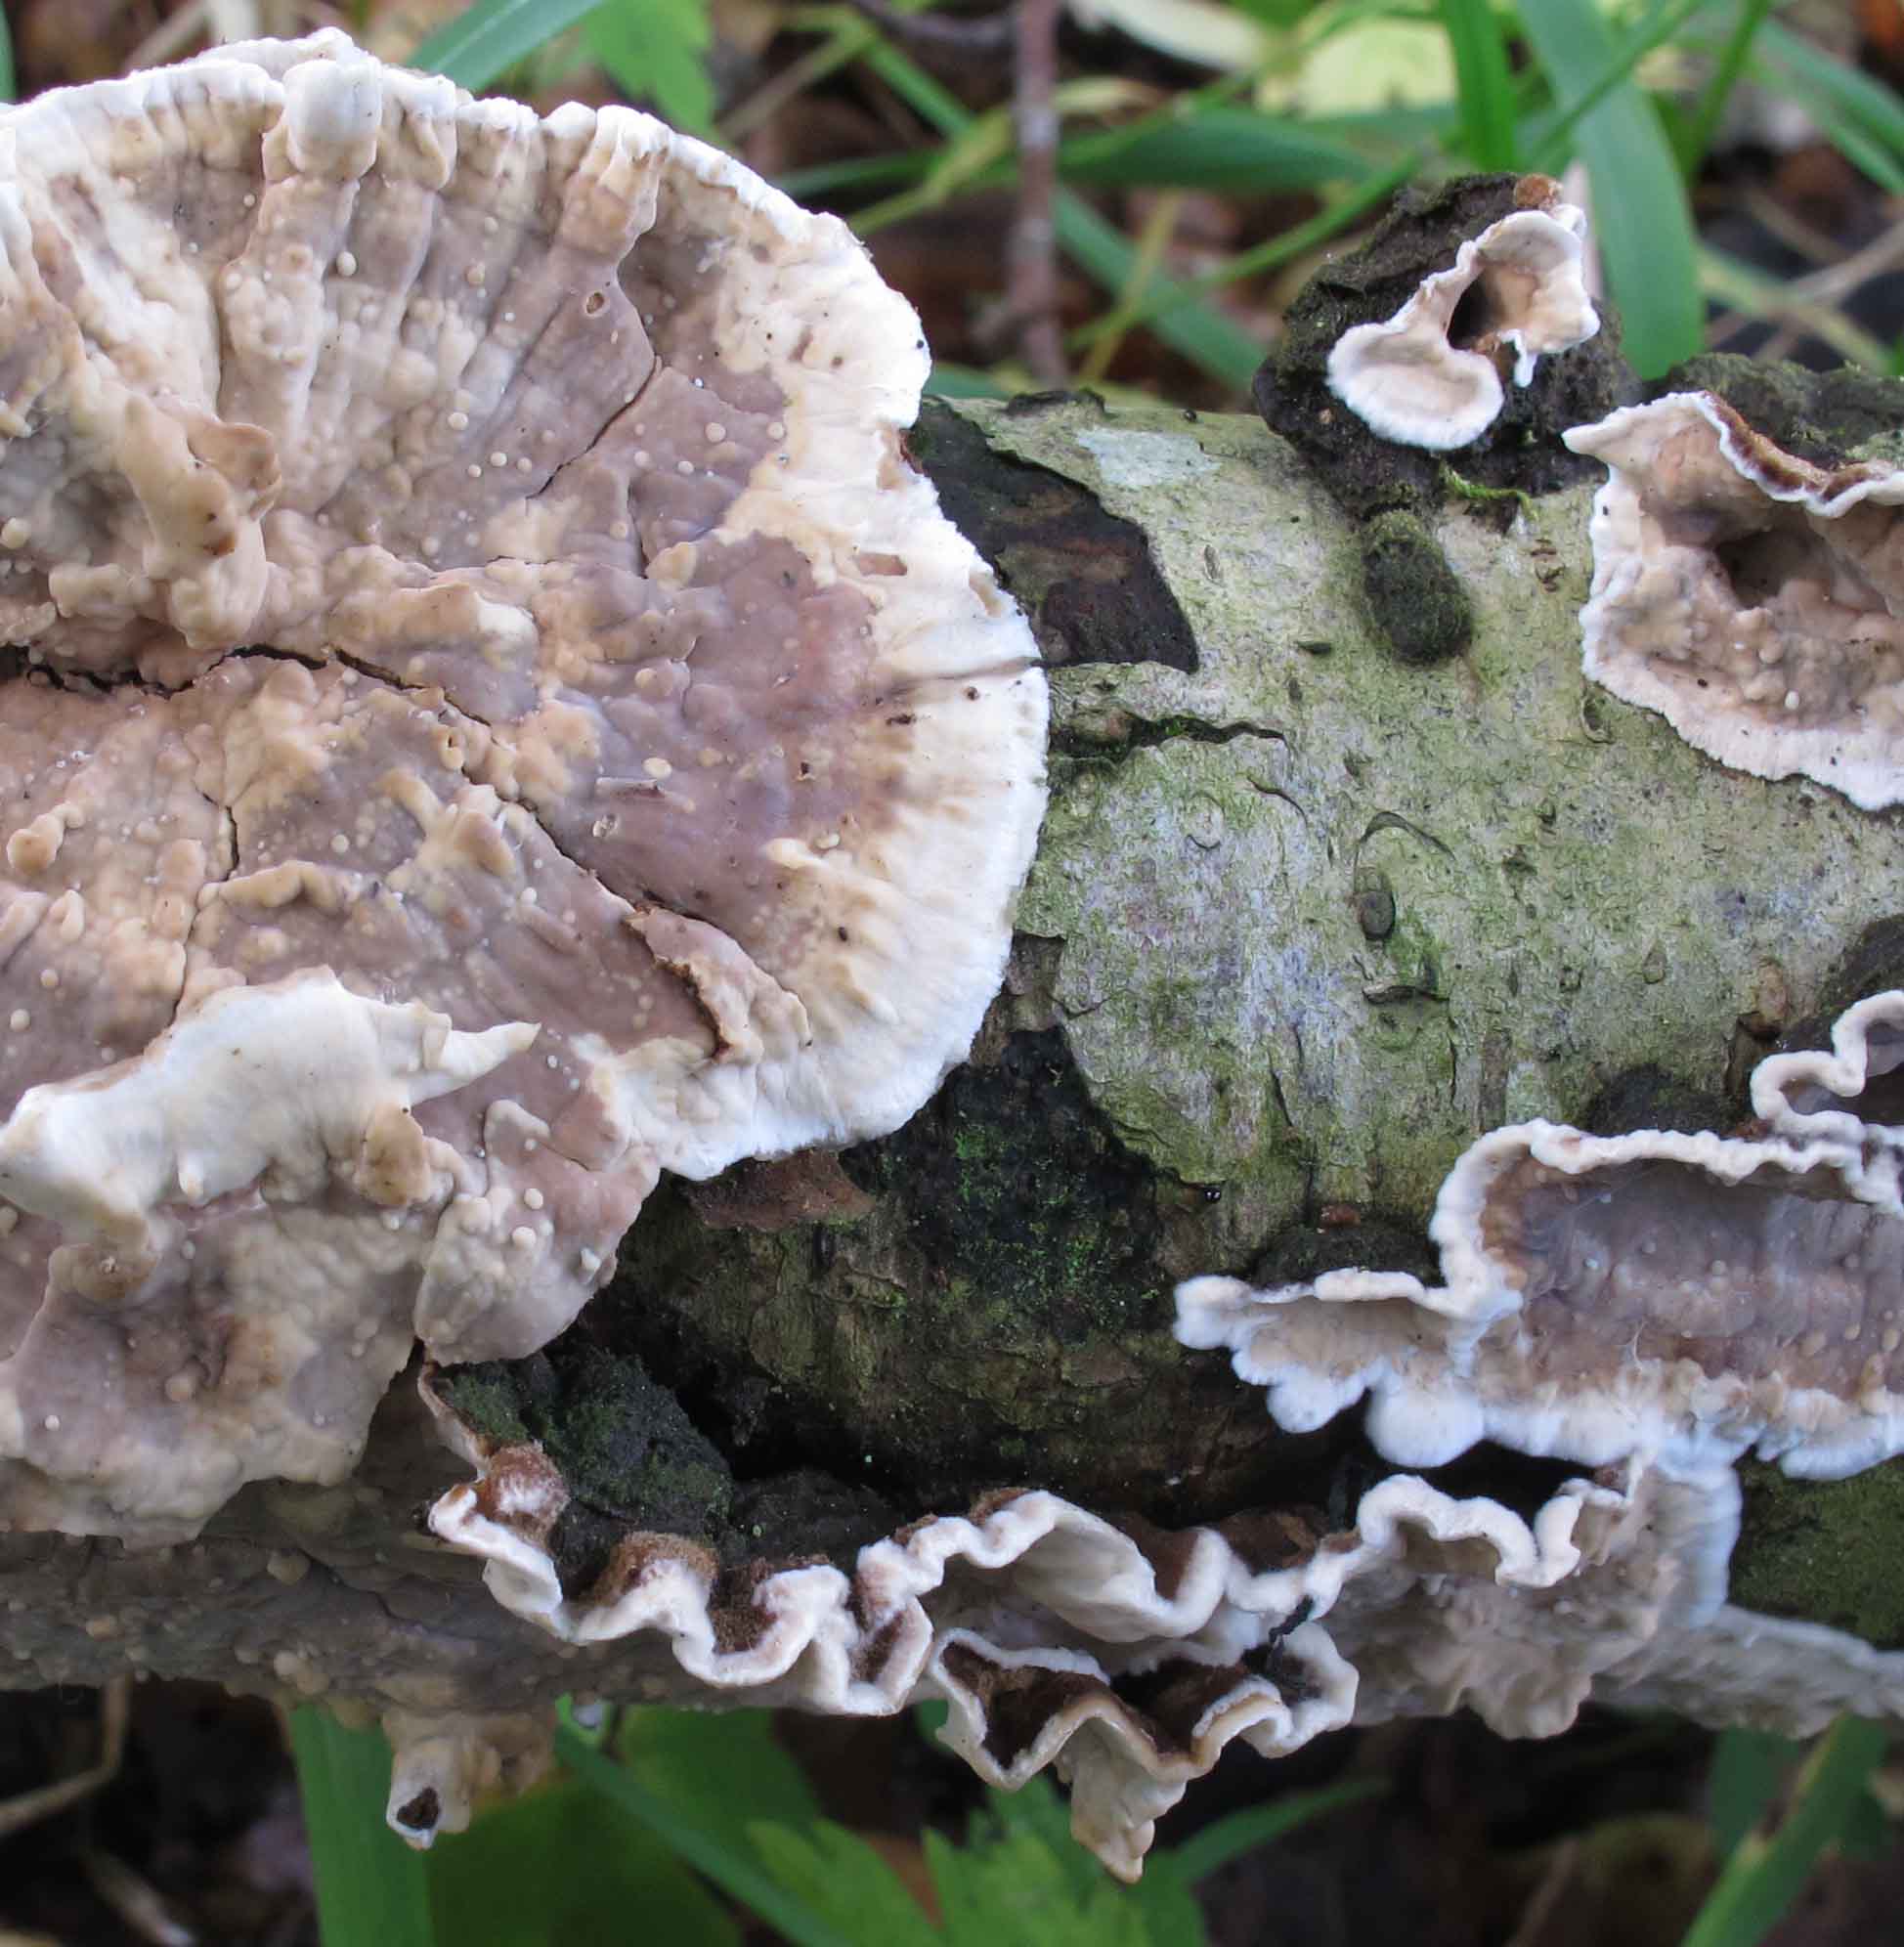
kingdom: Fungi
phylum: Basidiomycota
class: Agaricomycetes
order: Russulales
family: Hericiaceae
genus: Laxitextum
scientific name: Laxitextum bicolor
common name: tvefarvet filtskind
